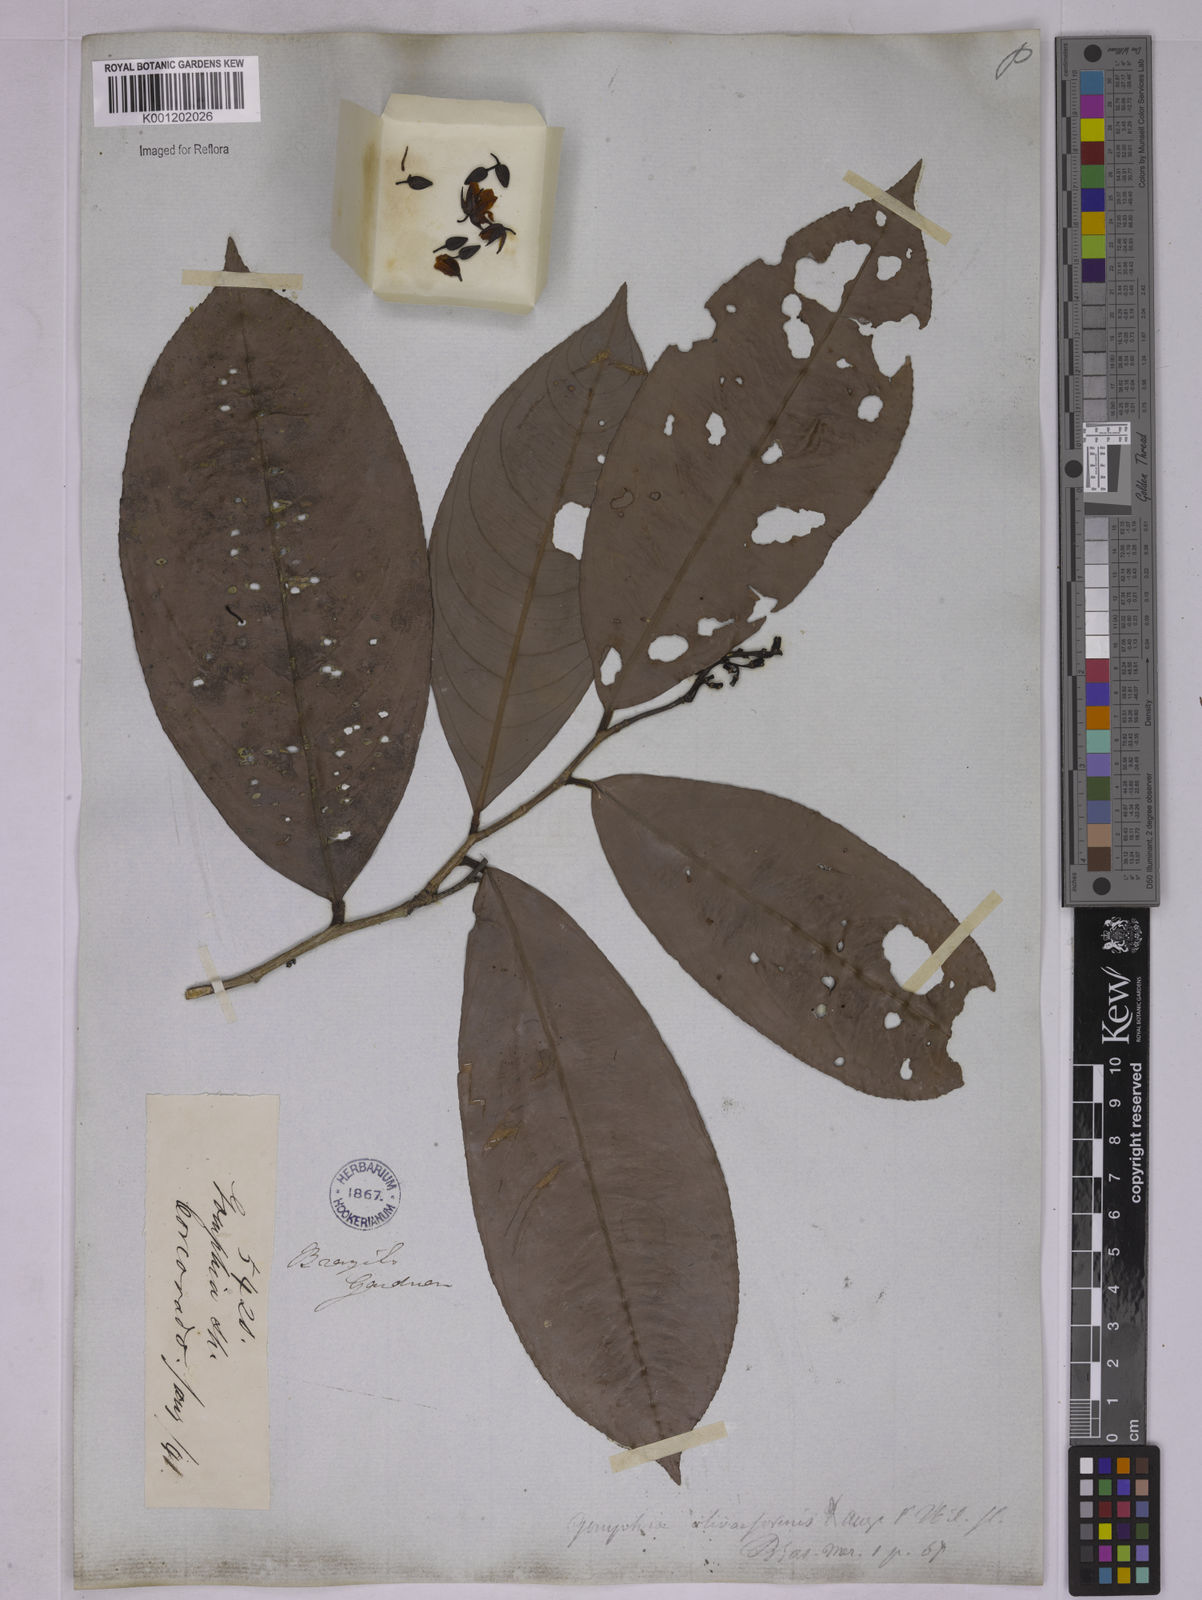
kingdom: Plantae
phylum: Tracheophyta
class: Magnoliopsida
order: Malpighiales
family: Ochnaceae
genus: Ouratea
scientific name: Ouratea oliviformis
